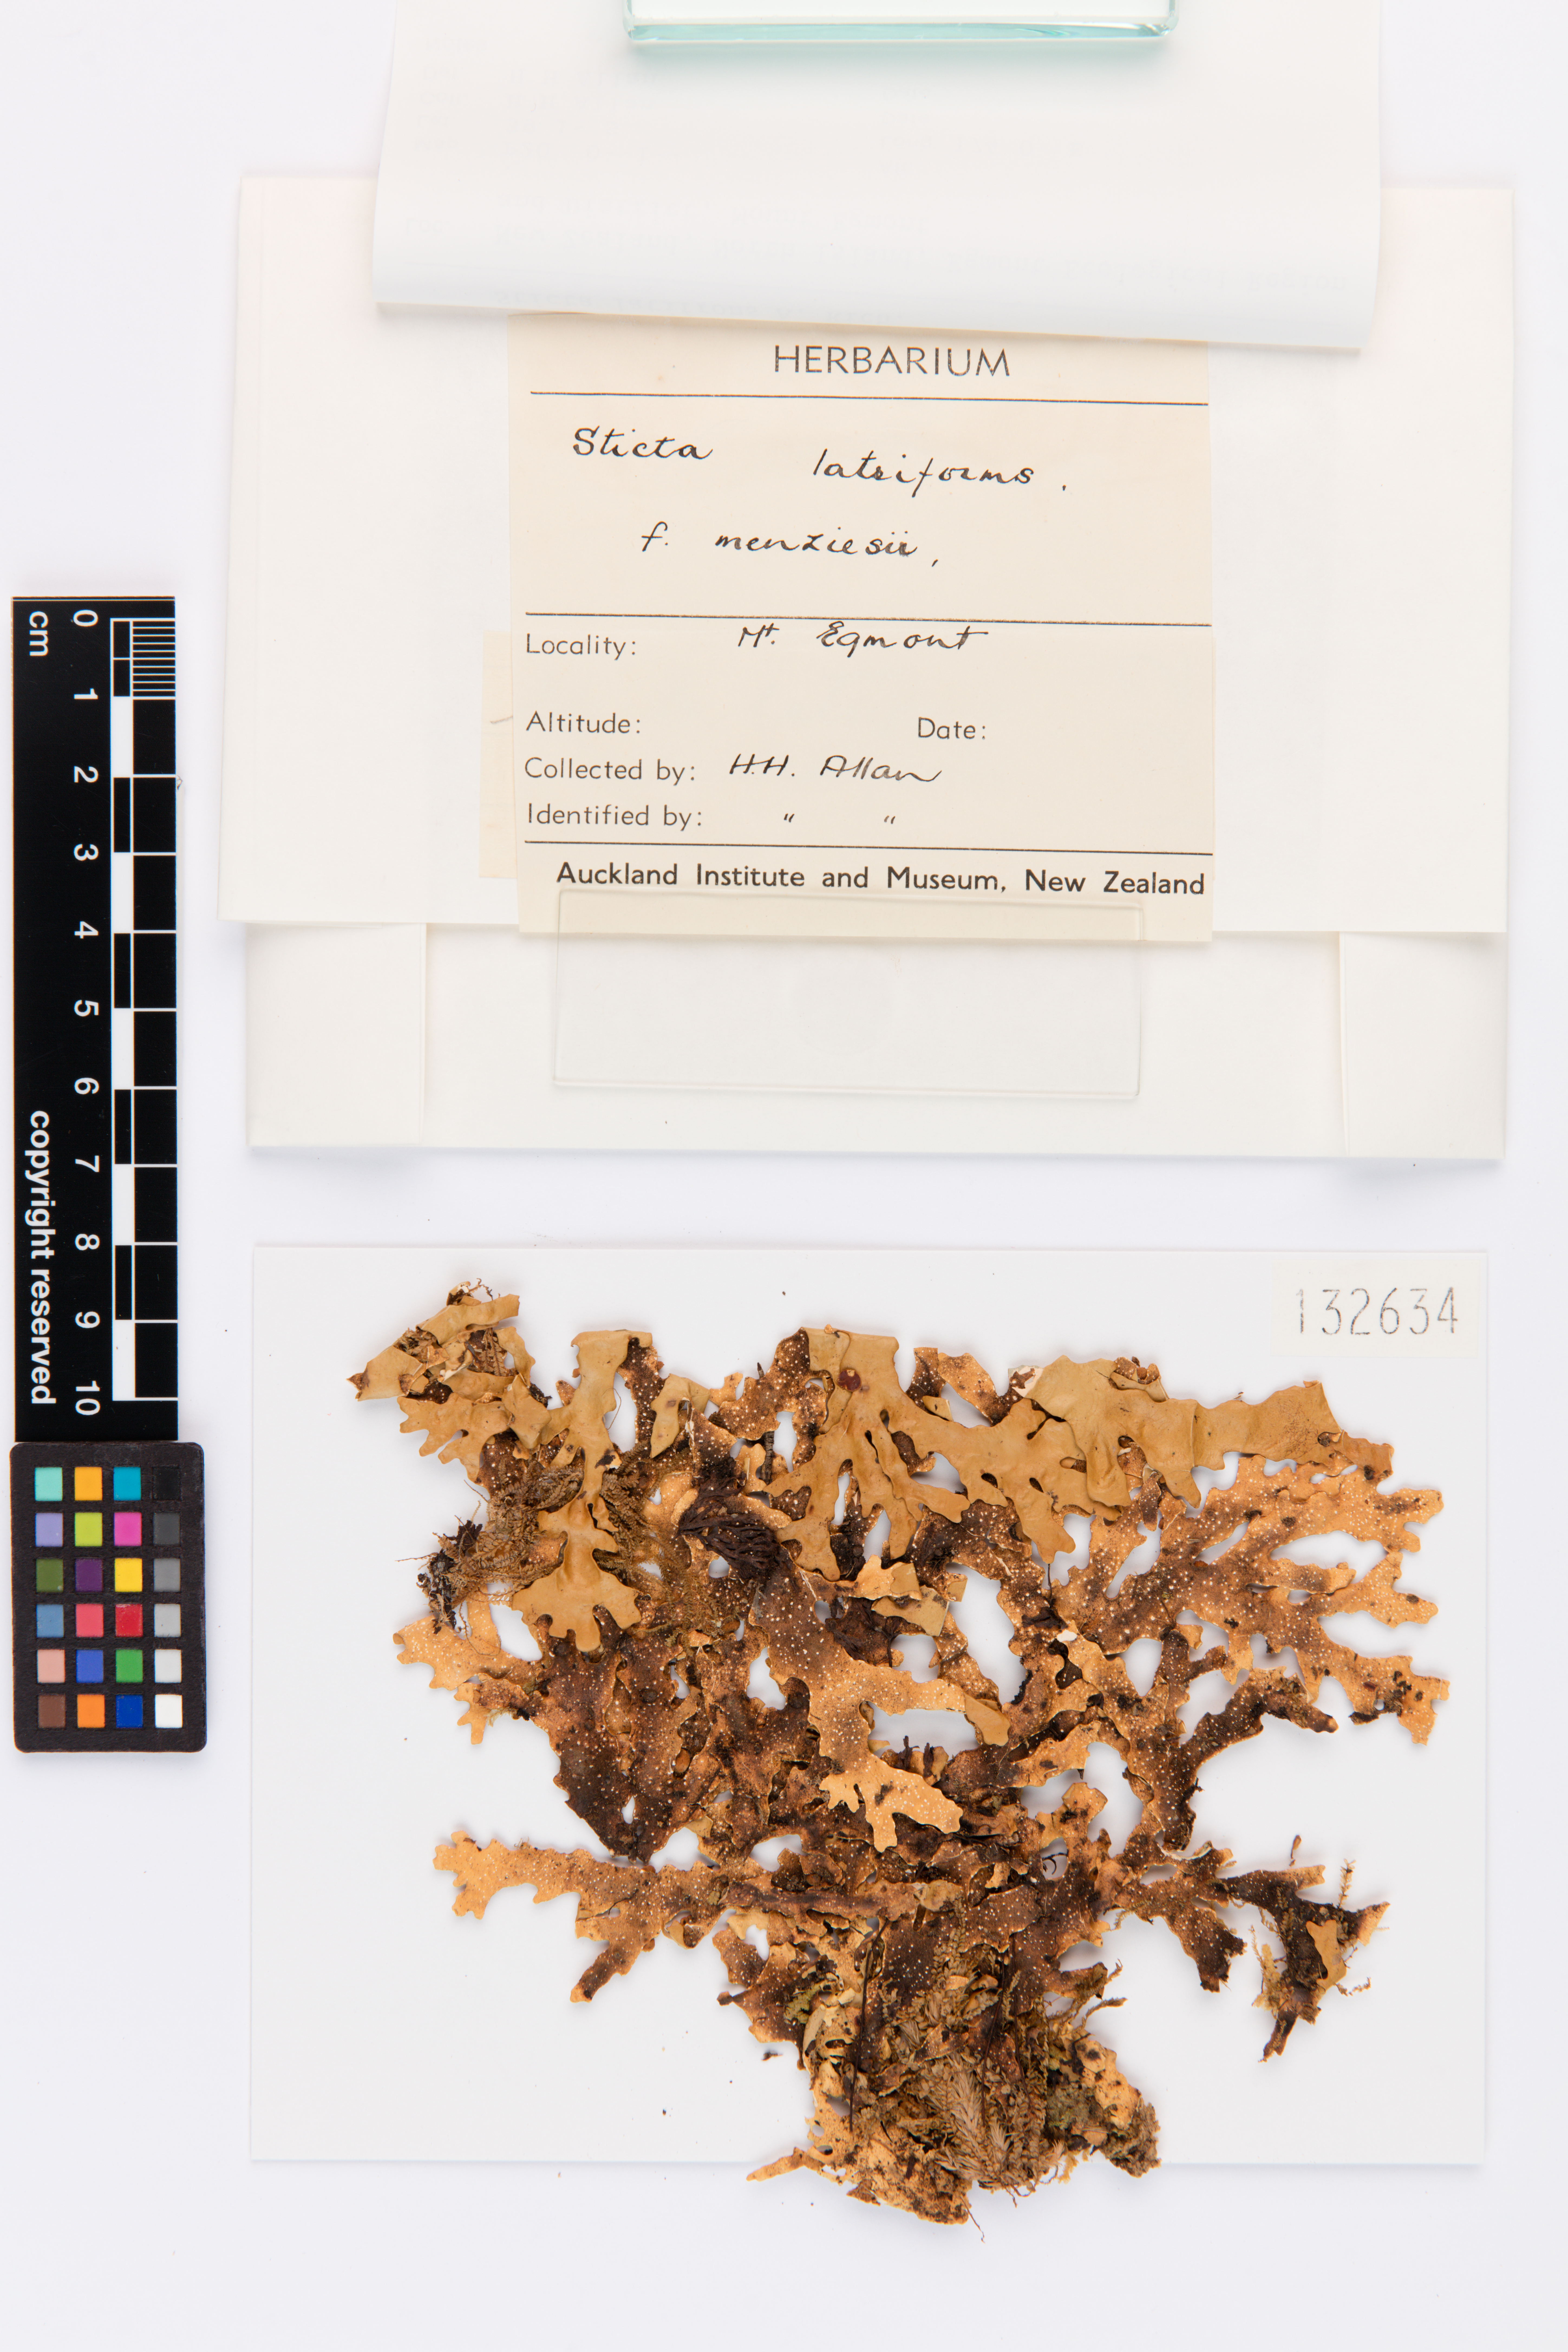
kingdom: Fungi
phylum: Ascomycota
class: Lecanoromycetes
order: Peltigerales
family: Lobariaceae
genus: Sticta
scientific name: Sticta latifrons
